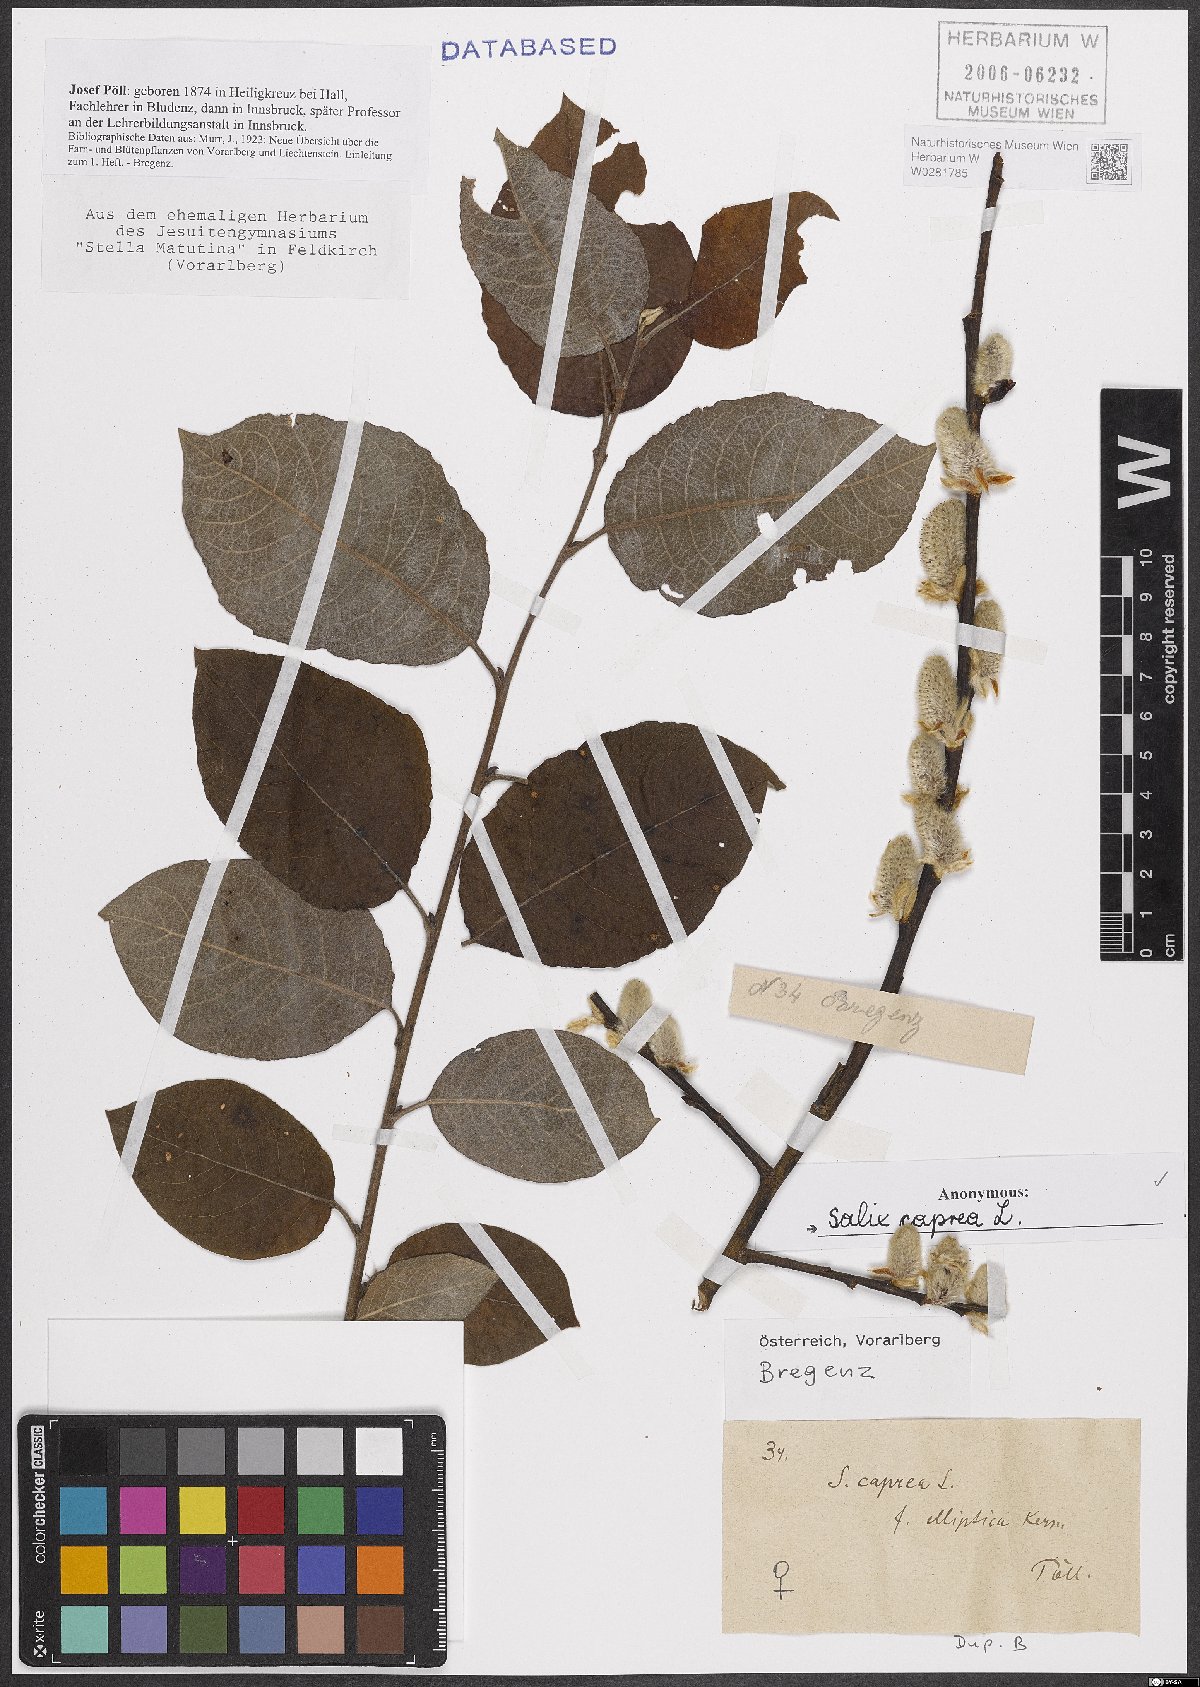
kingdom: Plantae
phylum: Tracheophyta
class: Magnoliopsida
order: Malpighiales
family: Salicaceae
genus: Salix
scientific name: Salix caprea
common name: Goat willow
